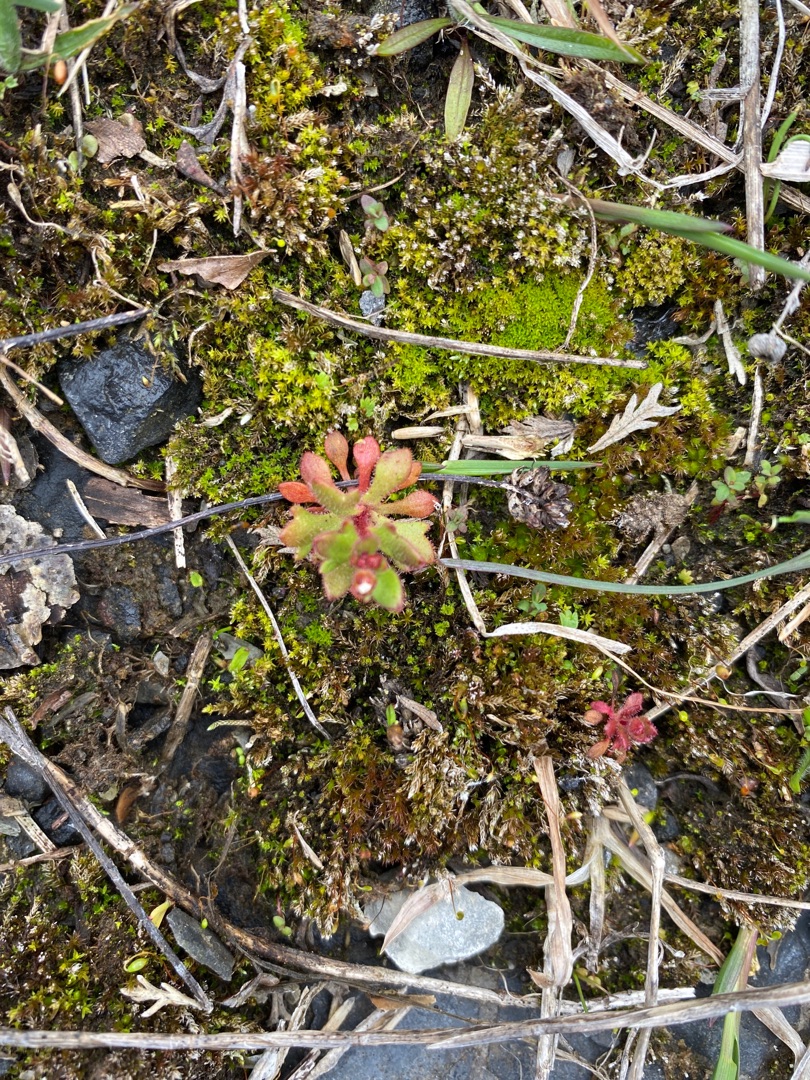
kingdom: Plantae
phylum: Tracheophyta
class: Magnoliopsida
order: Saxifragales
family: Saxifragaceae
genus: Saxifraga
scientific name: Saxifraga tridactylites
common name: Trekløft-stenbræk
